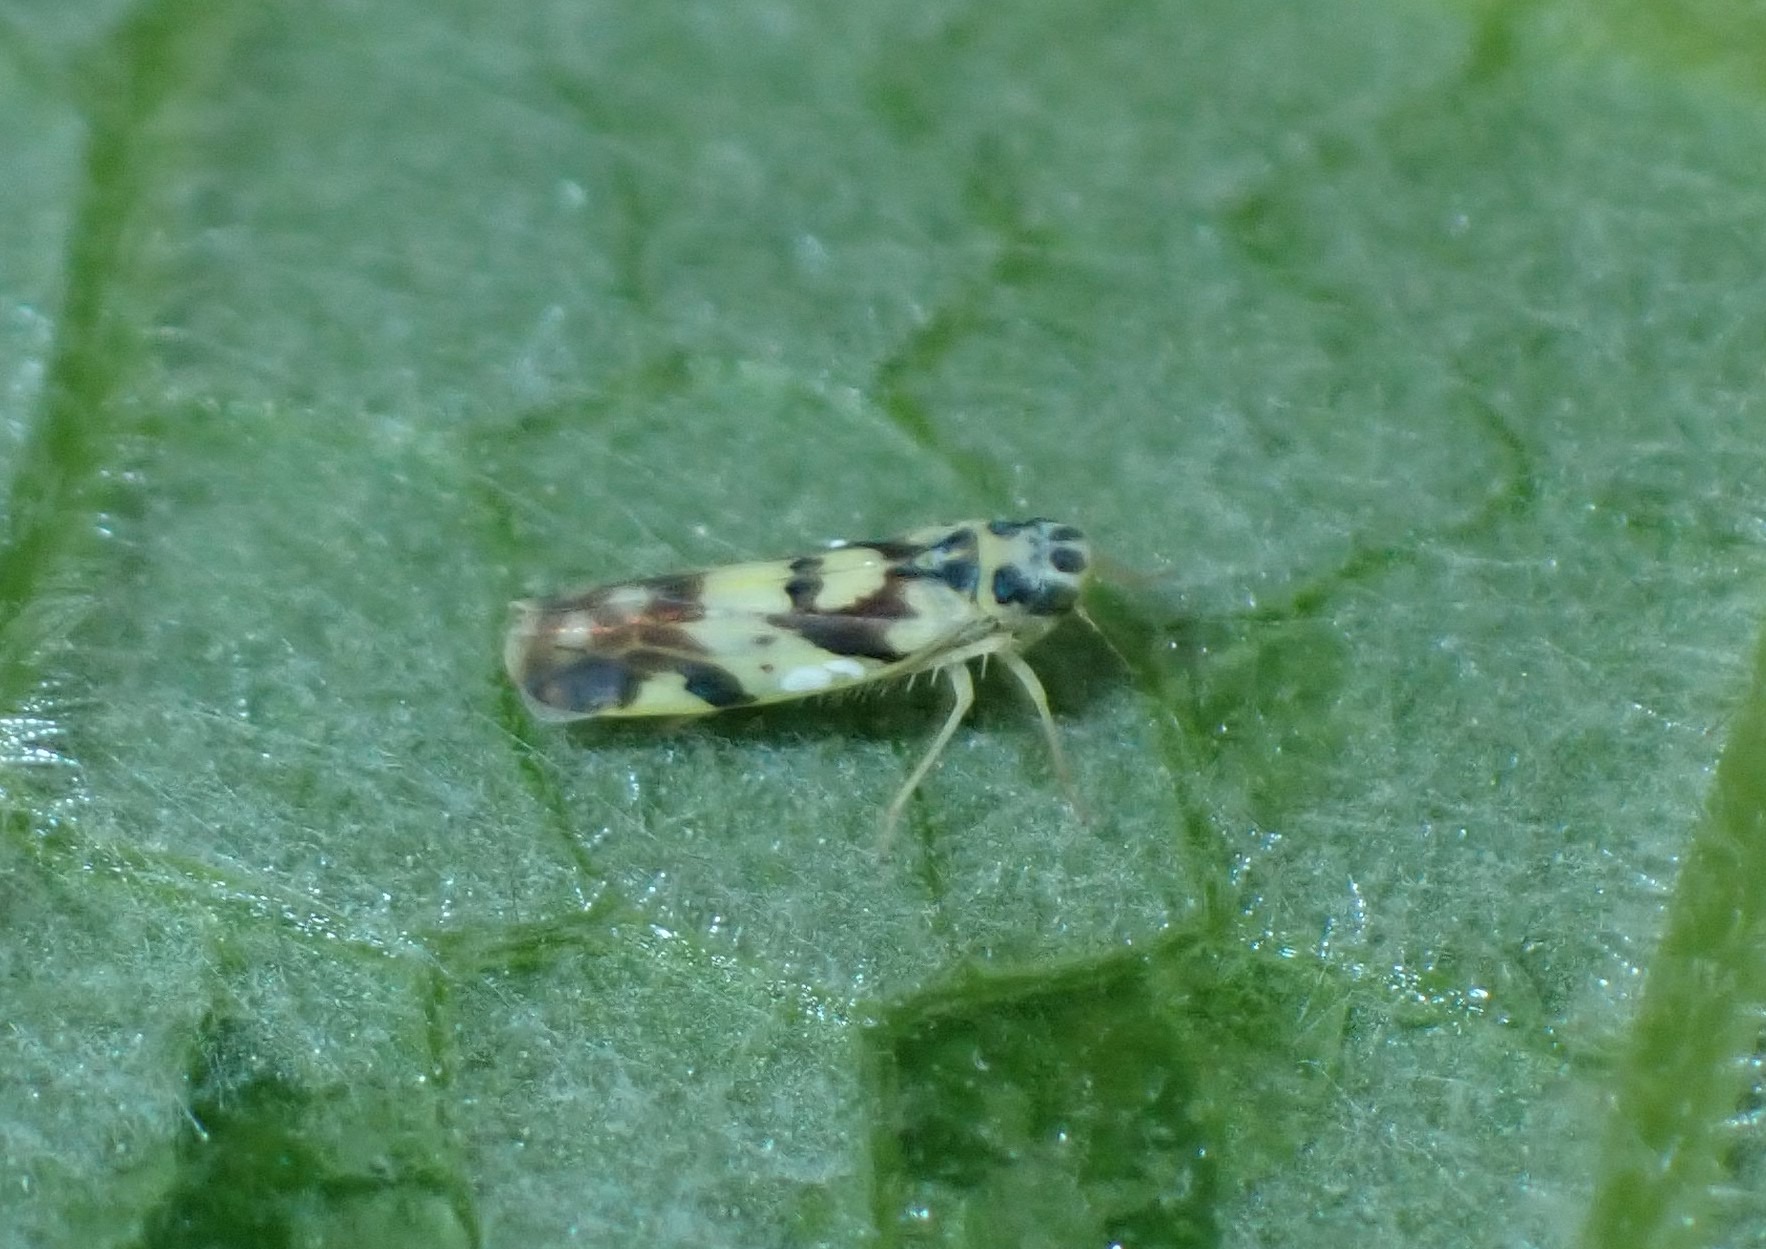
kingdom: Animalia
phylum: Arthropoda
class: Insecta
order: Hemiptera
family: Cicadellidae
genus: Eupteryx
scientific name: Eupteryx aurata
